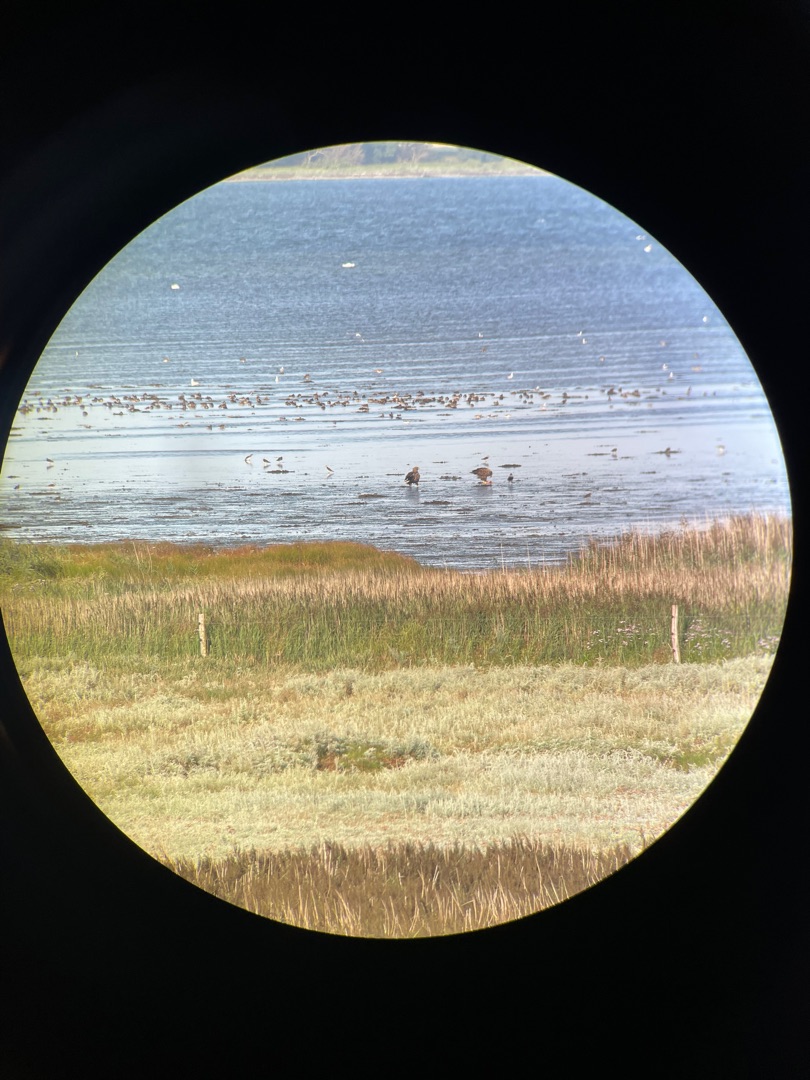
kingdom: Animalia
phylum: Chordata
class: Aves
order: Accipitriformes
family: Accipitridae
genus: Haliaeetus
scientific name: Haliaeetus albicilla
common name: Havørn
